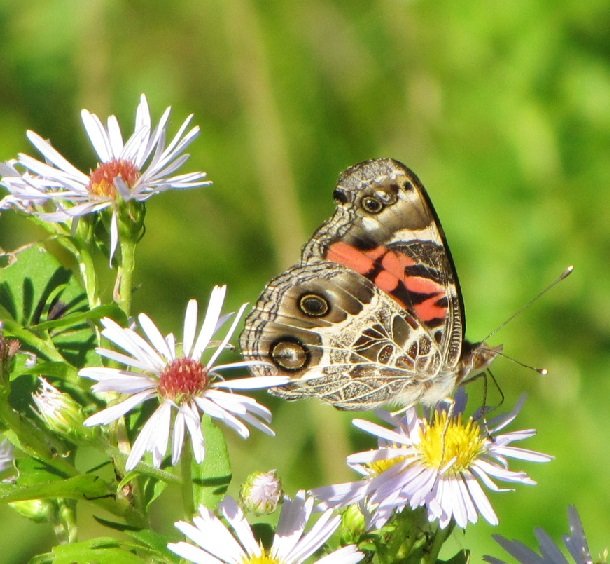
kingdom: Animalia
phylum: Arthropoda
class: Insecta
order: Lepidoptera
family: Nymphalidae
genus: Vanessa
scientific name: Vanessa virginiensis
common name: American Lady
